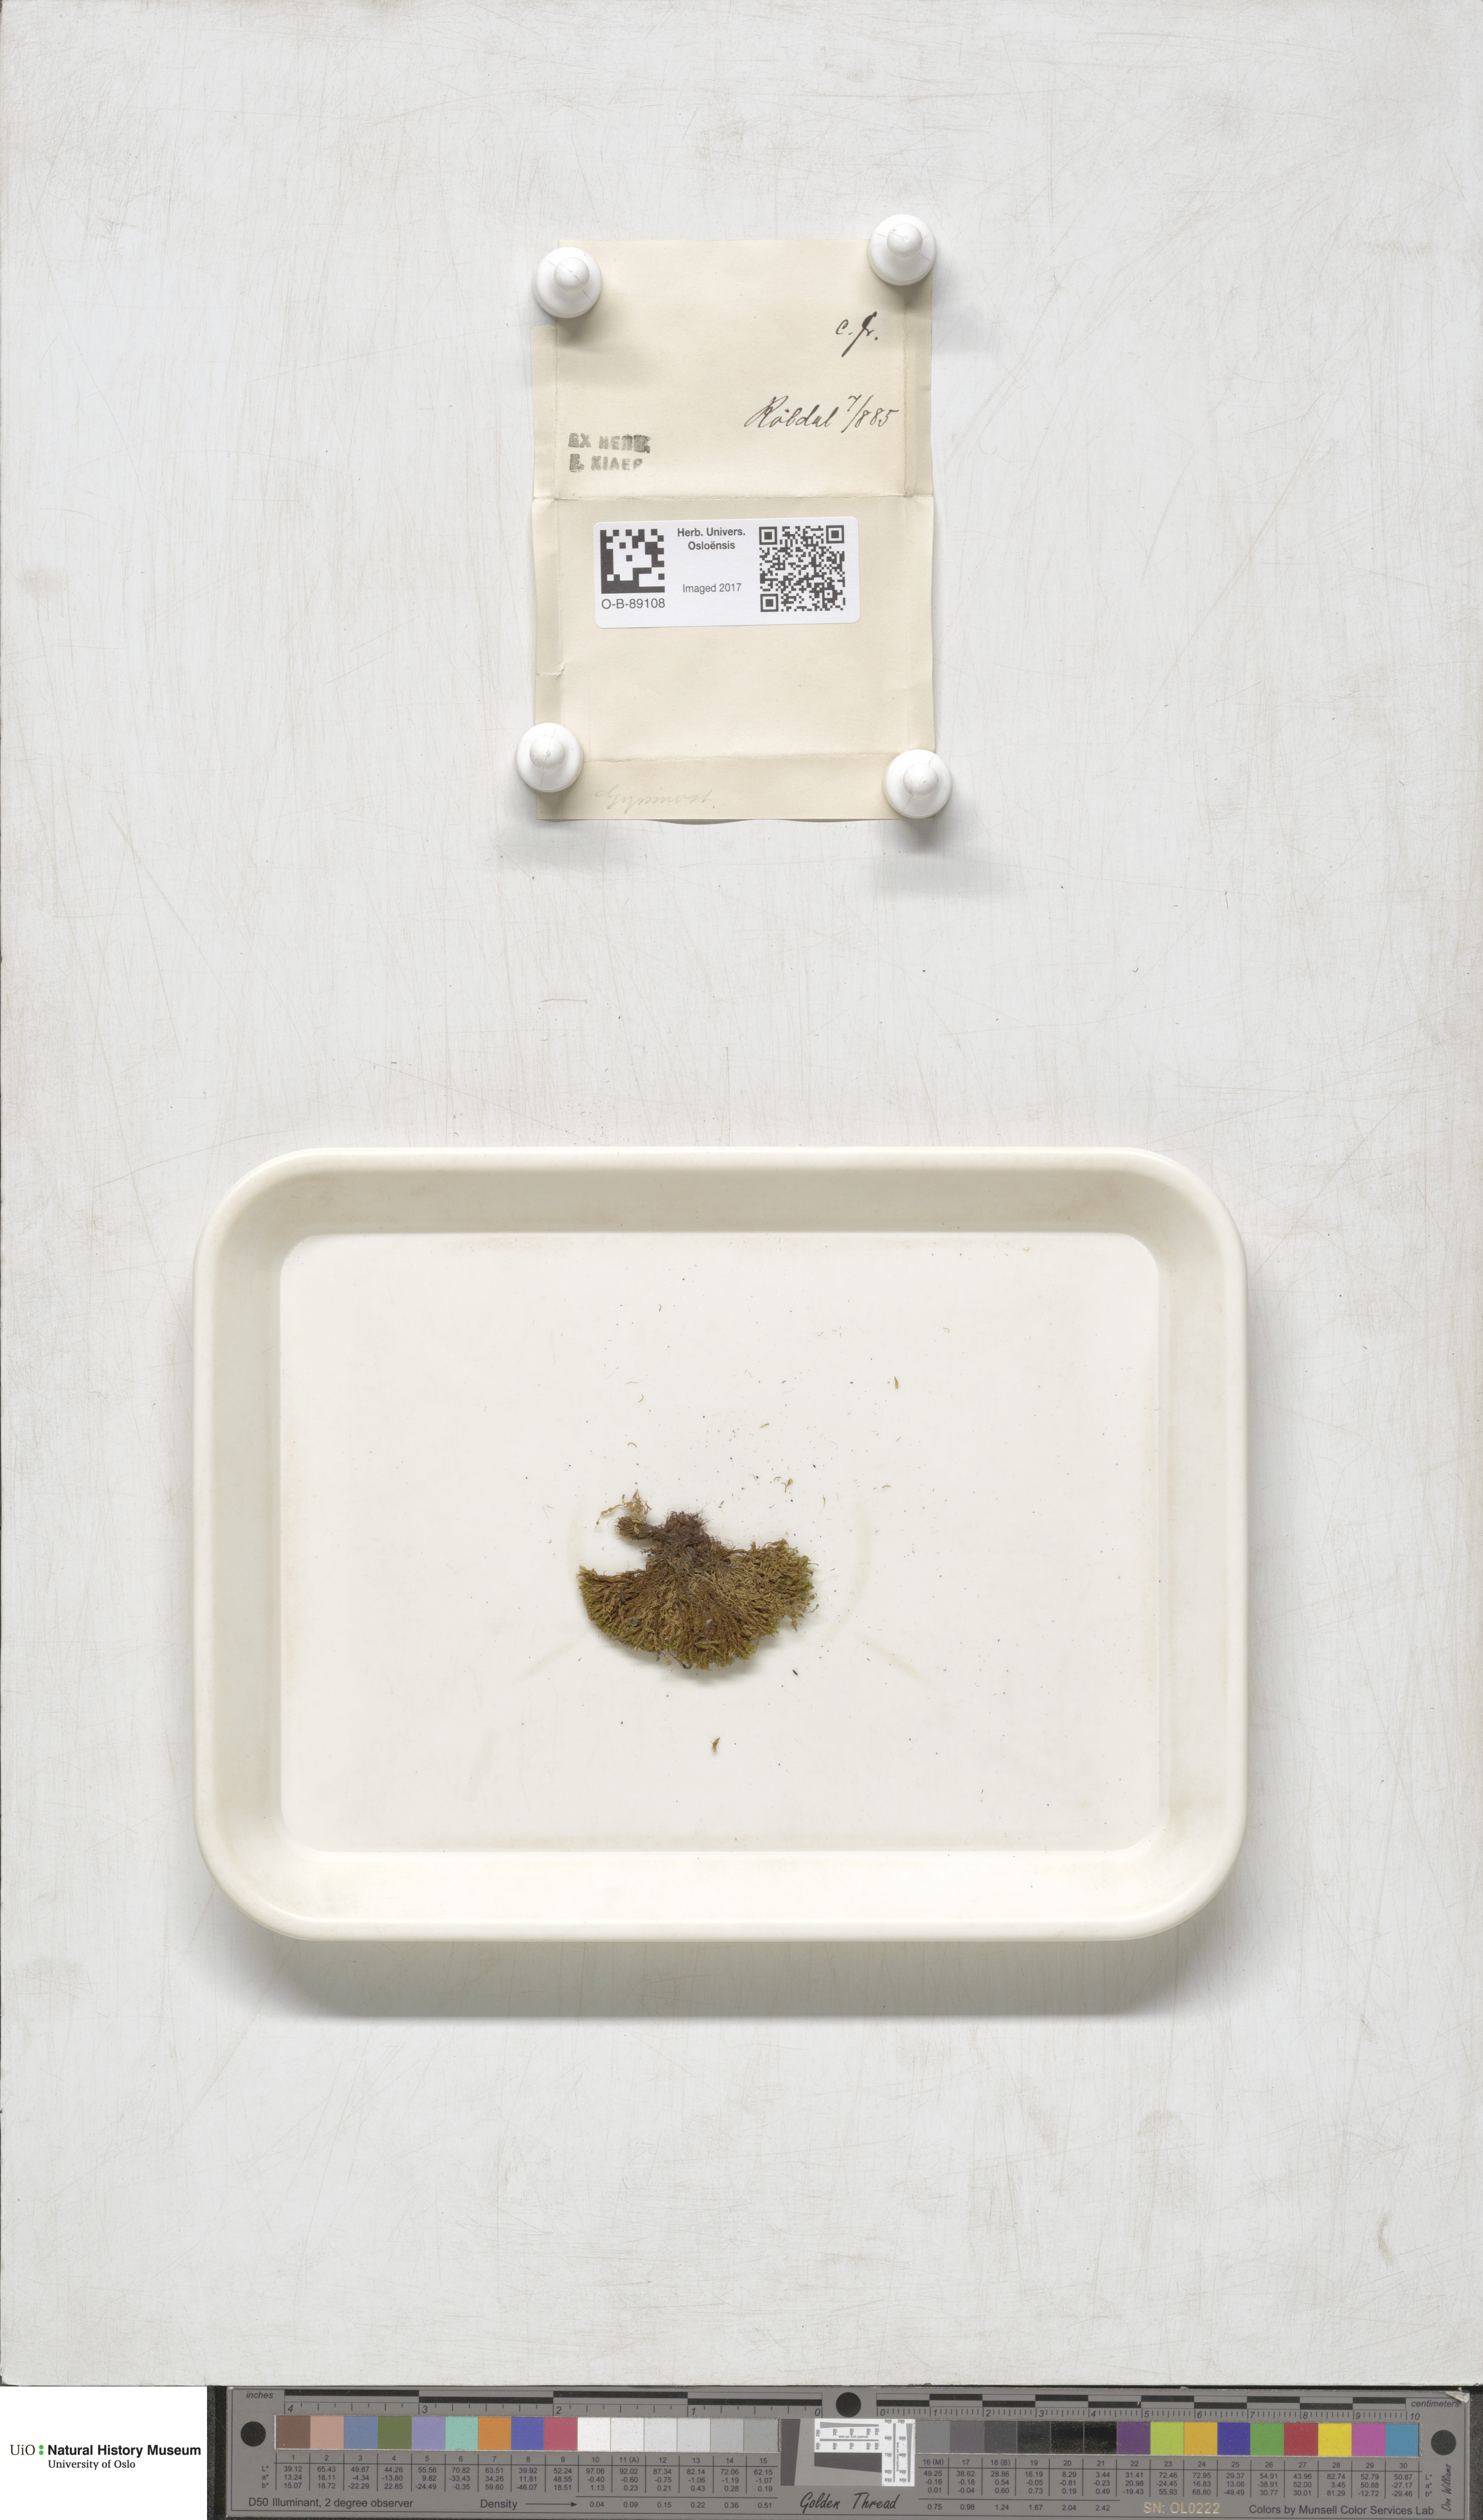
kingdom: Plantae
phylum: Bryophyta
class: Bryopsida
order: Pottiales
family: Pottiaceae
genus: Gymnostomum
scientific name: Gymnostomum aeruginosum
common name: Verdigris tufa-moss
